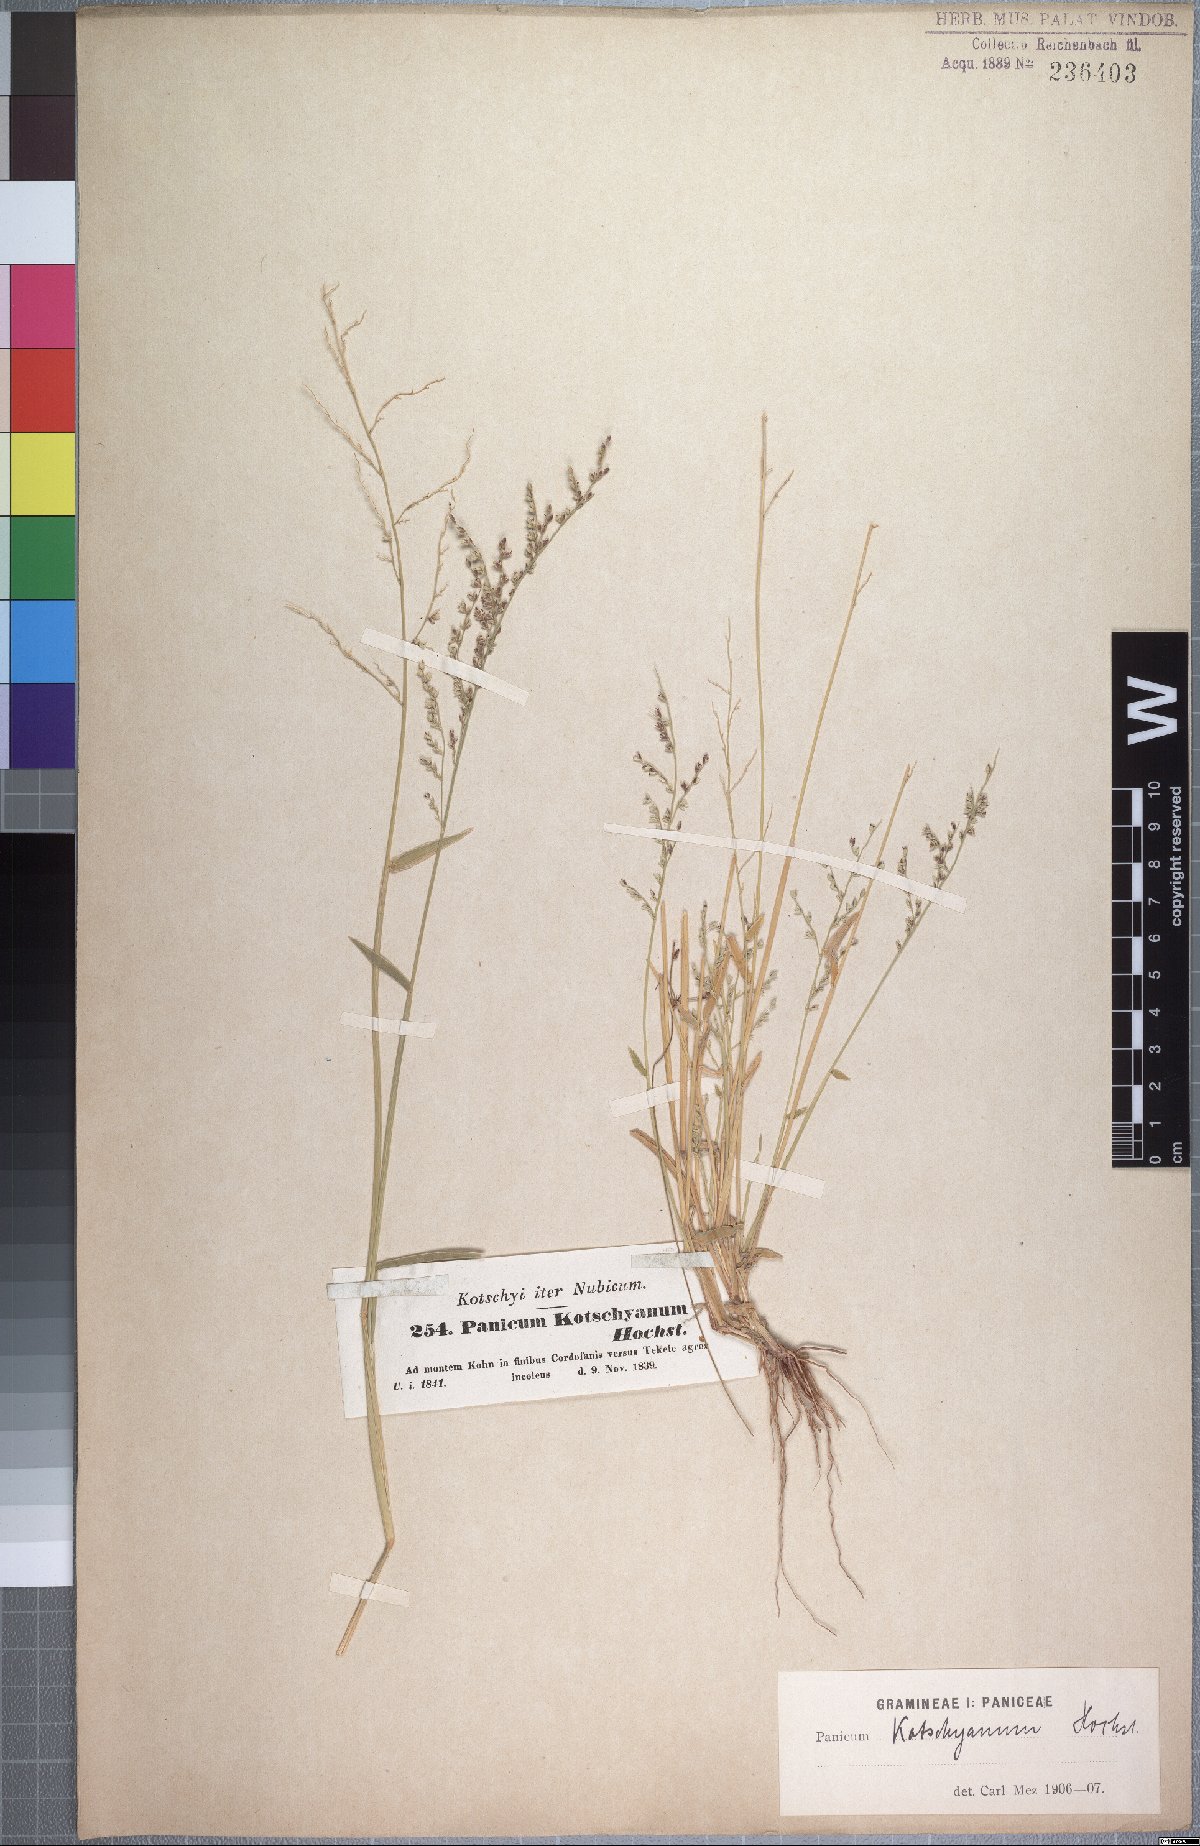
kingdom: Plantae
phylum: Tracheophyta
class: Liliopsida
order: Poales
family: Poaceae
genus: Urochloa
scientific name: Urochloa comata
